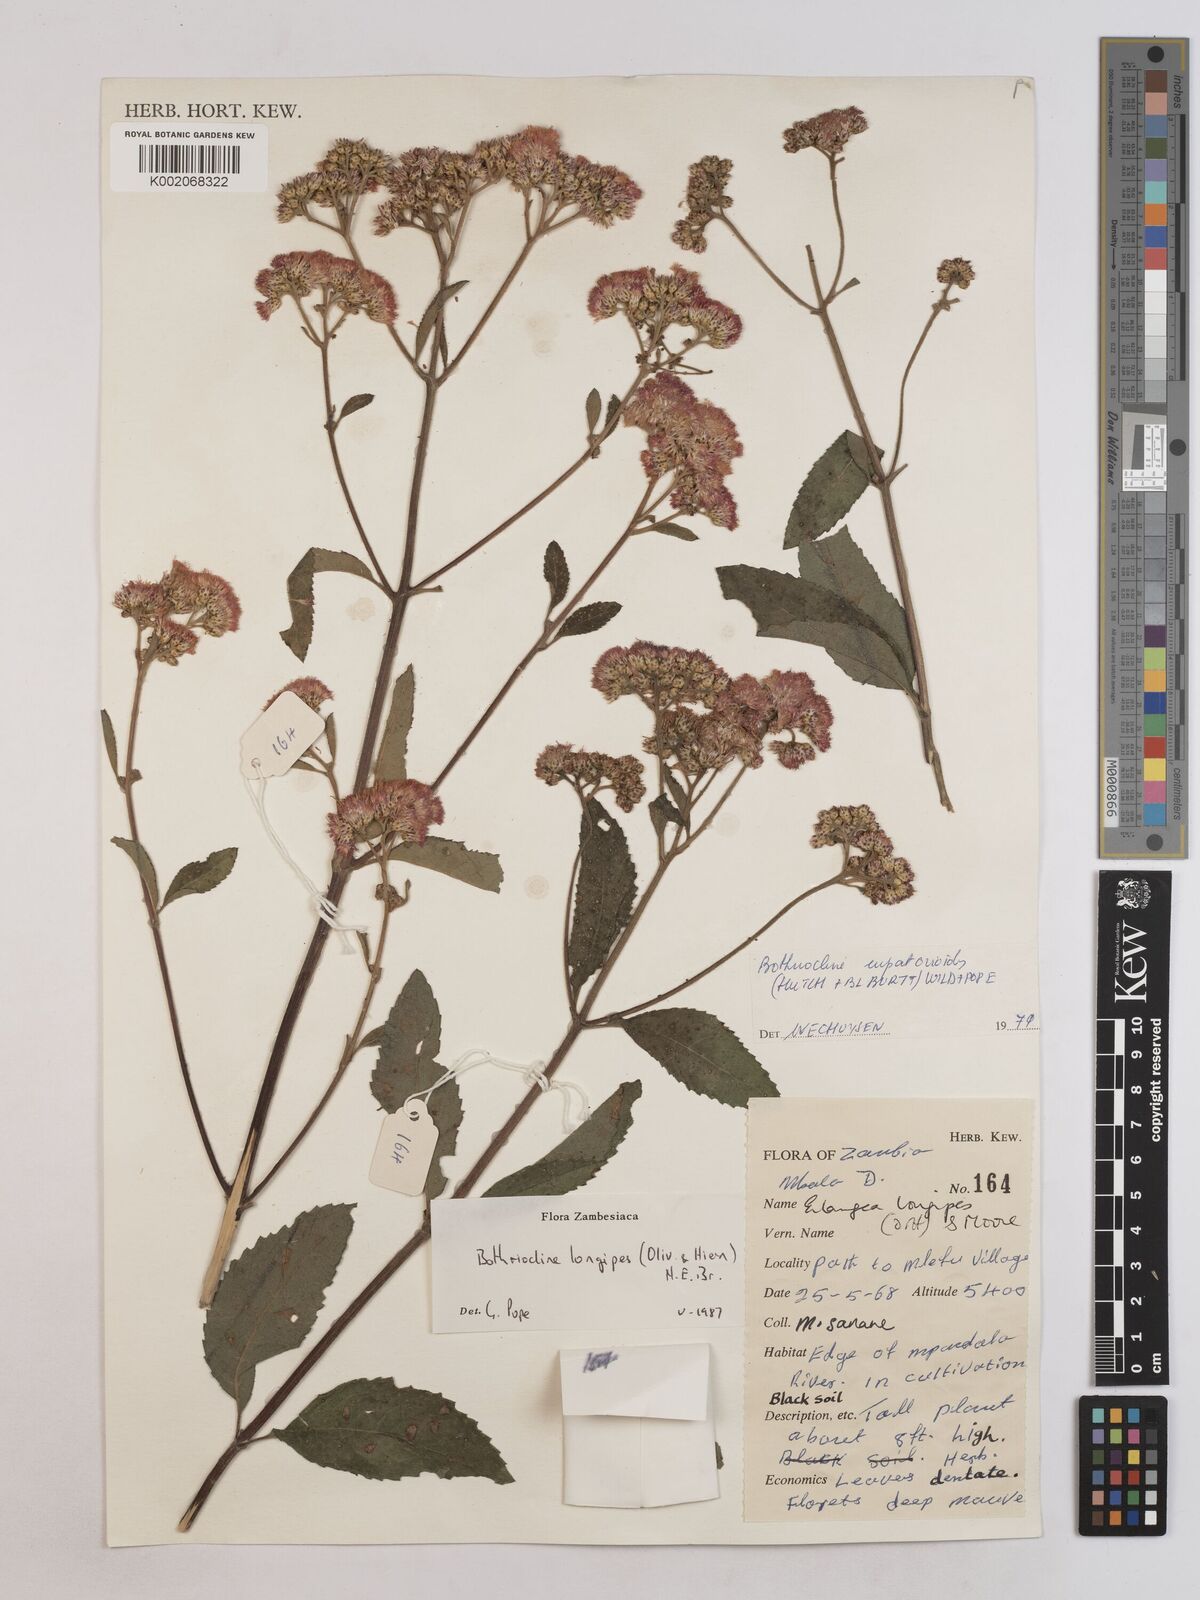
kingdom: Plantae
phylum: Tracheophyta
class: Magnoliopsida
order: Asterales
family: Asteraceae
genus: Bothriocline
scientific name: Bothriocline longipes
